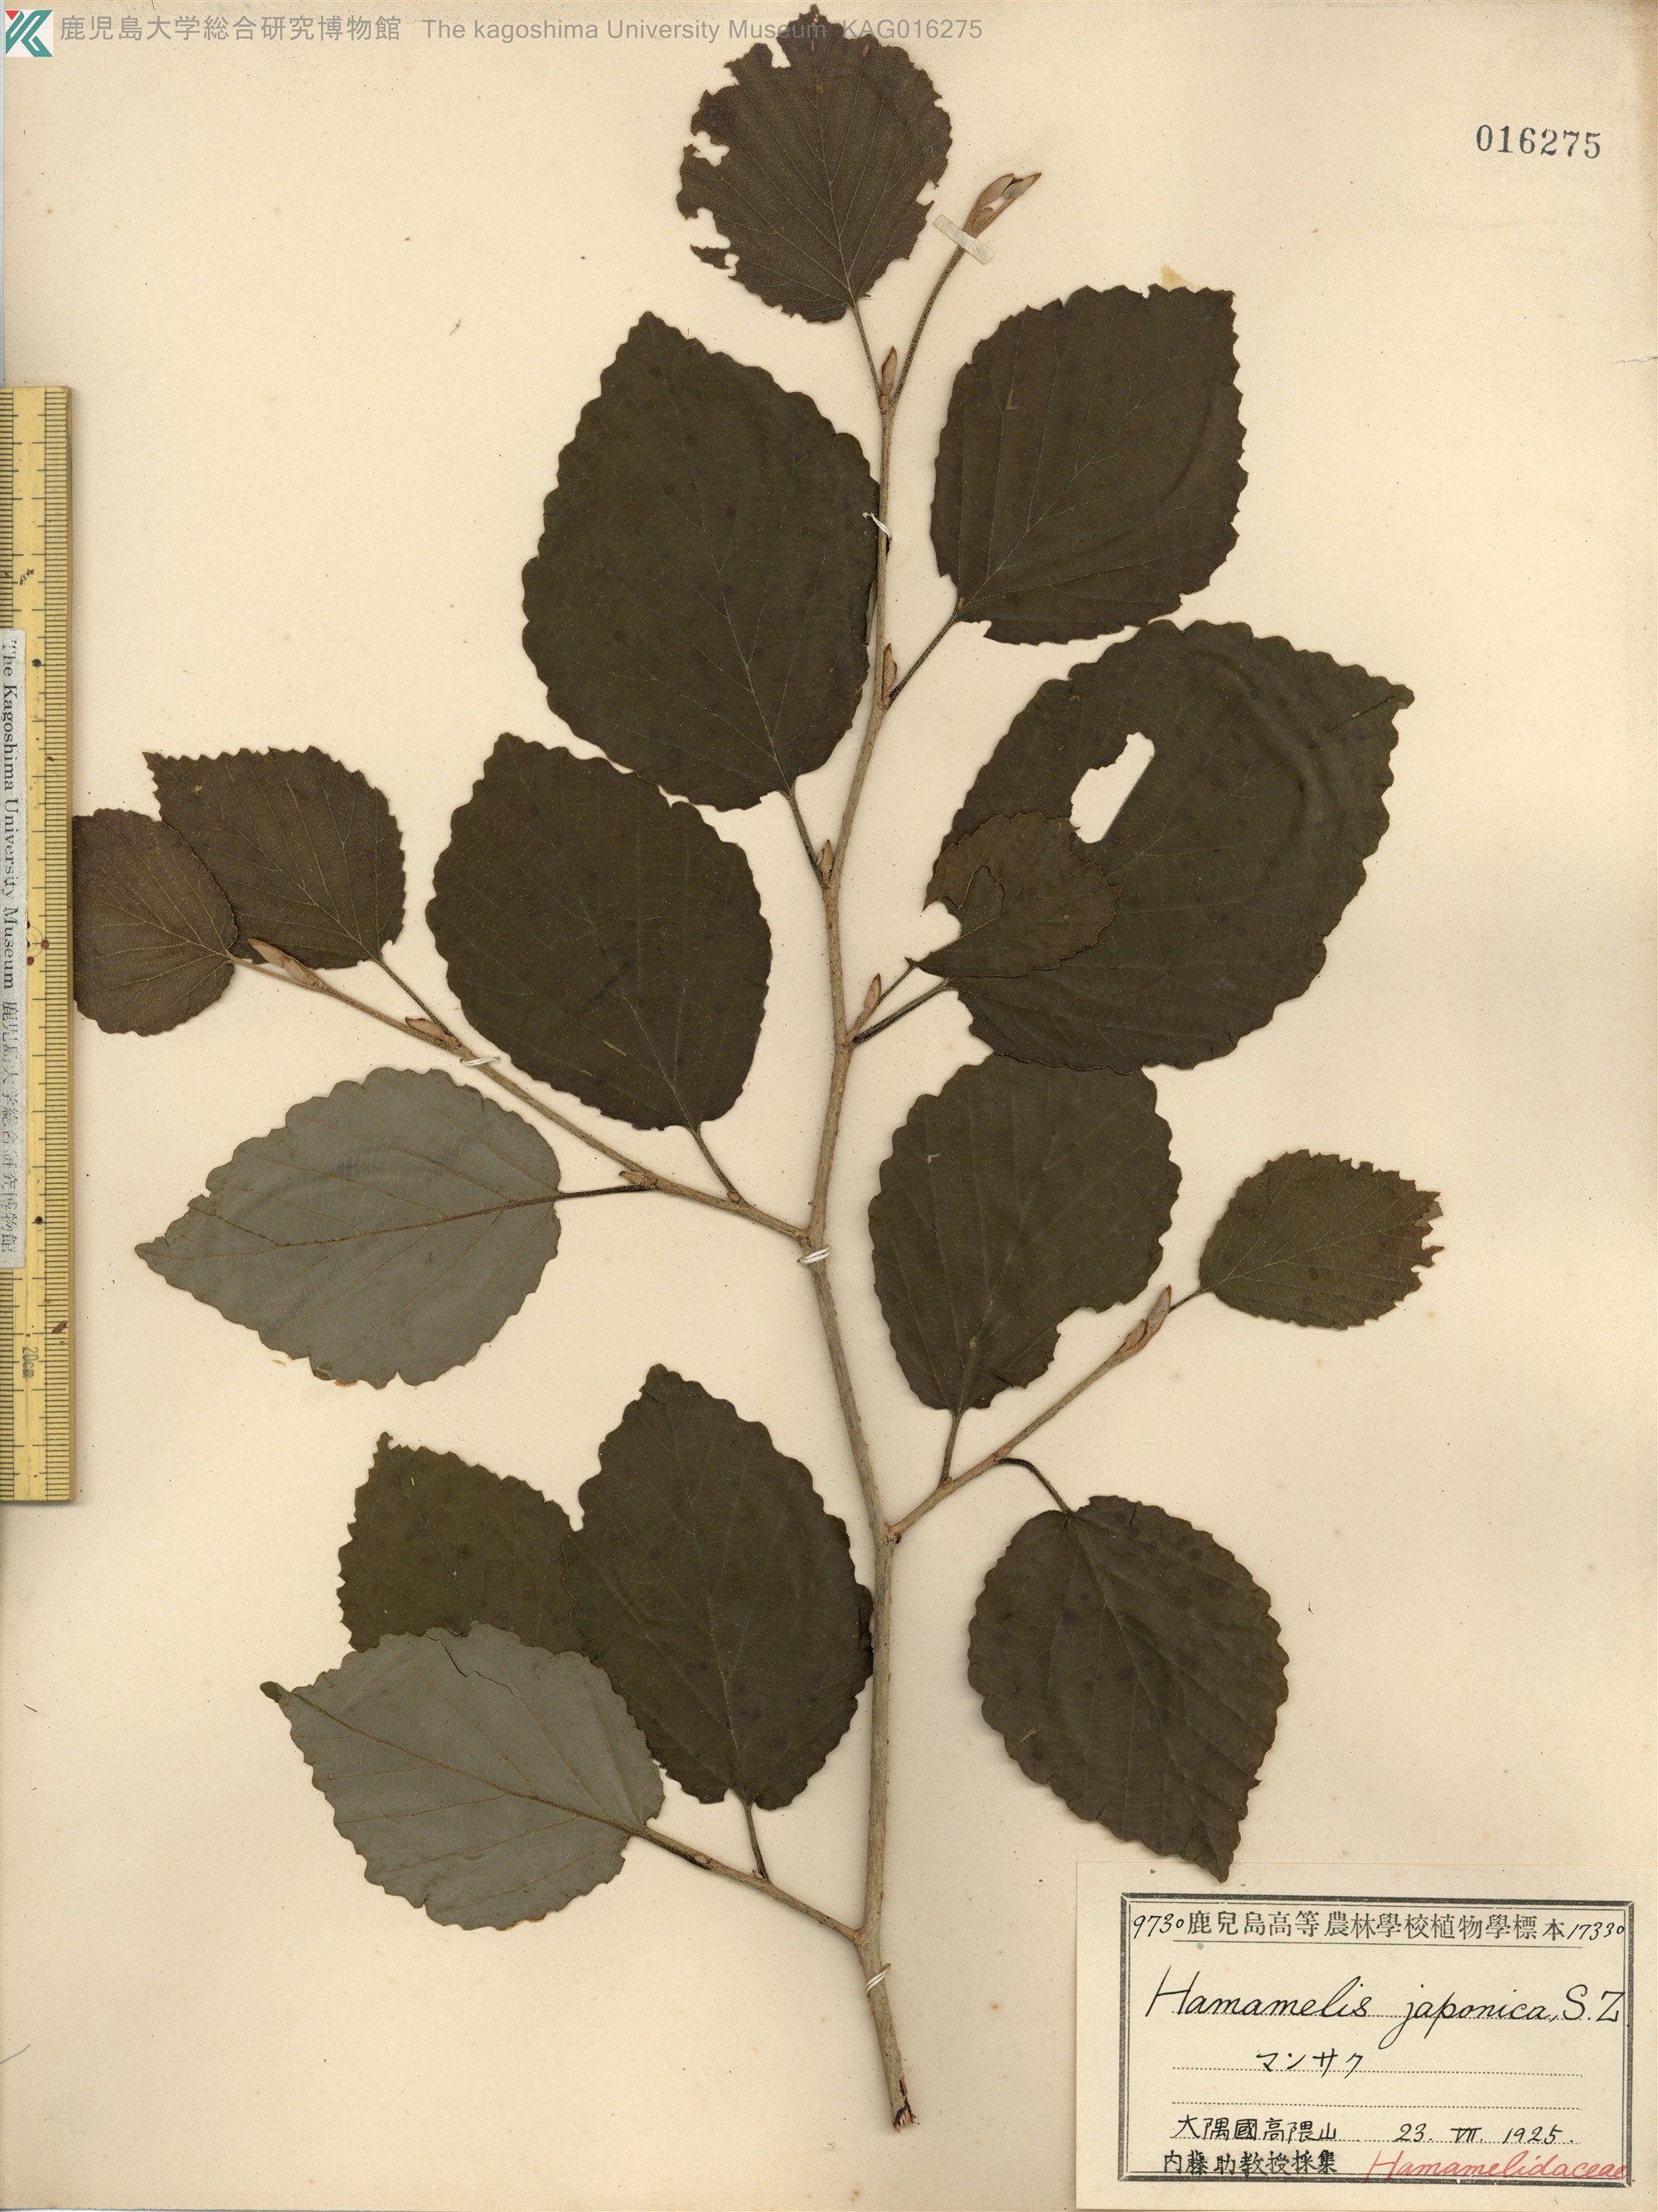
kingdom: Plantae
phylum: Tracheophyta
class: Magnoliopsida
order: Saxifragales
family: Hamamelidaceae
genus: Hamamelis
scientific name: Hamamelis japonica
